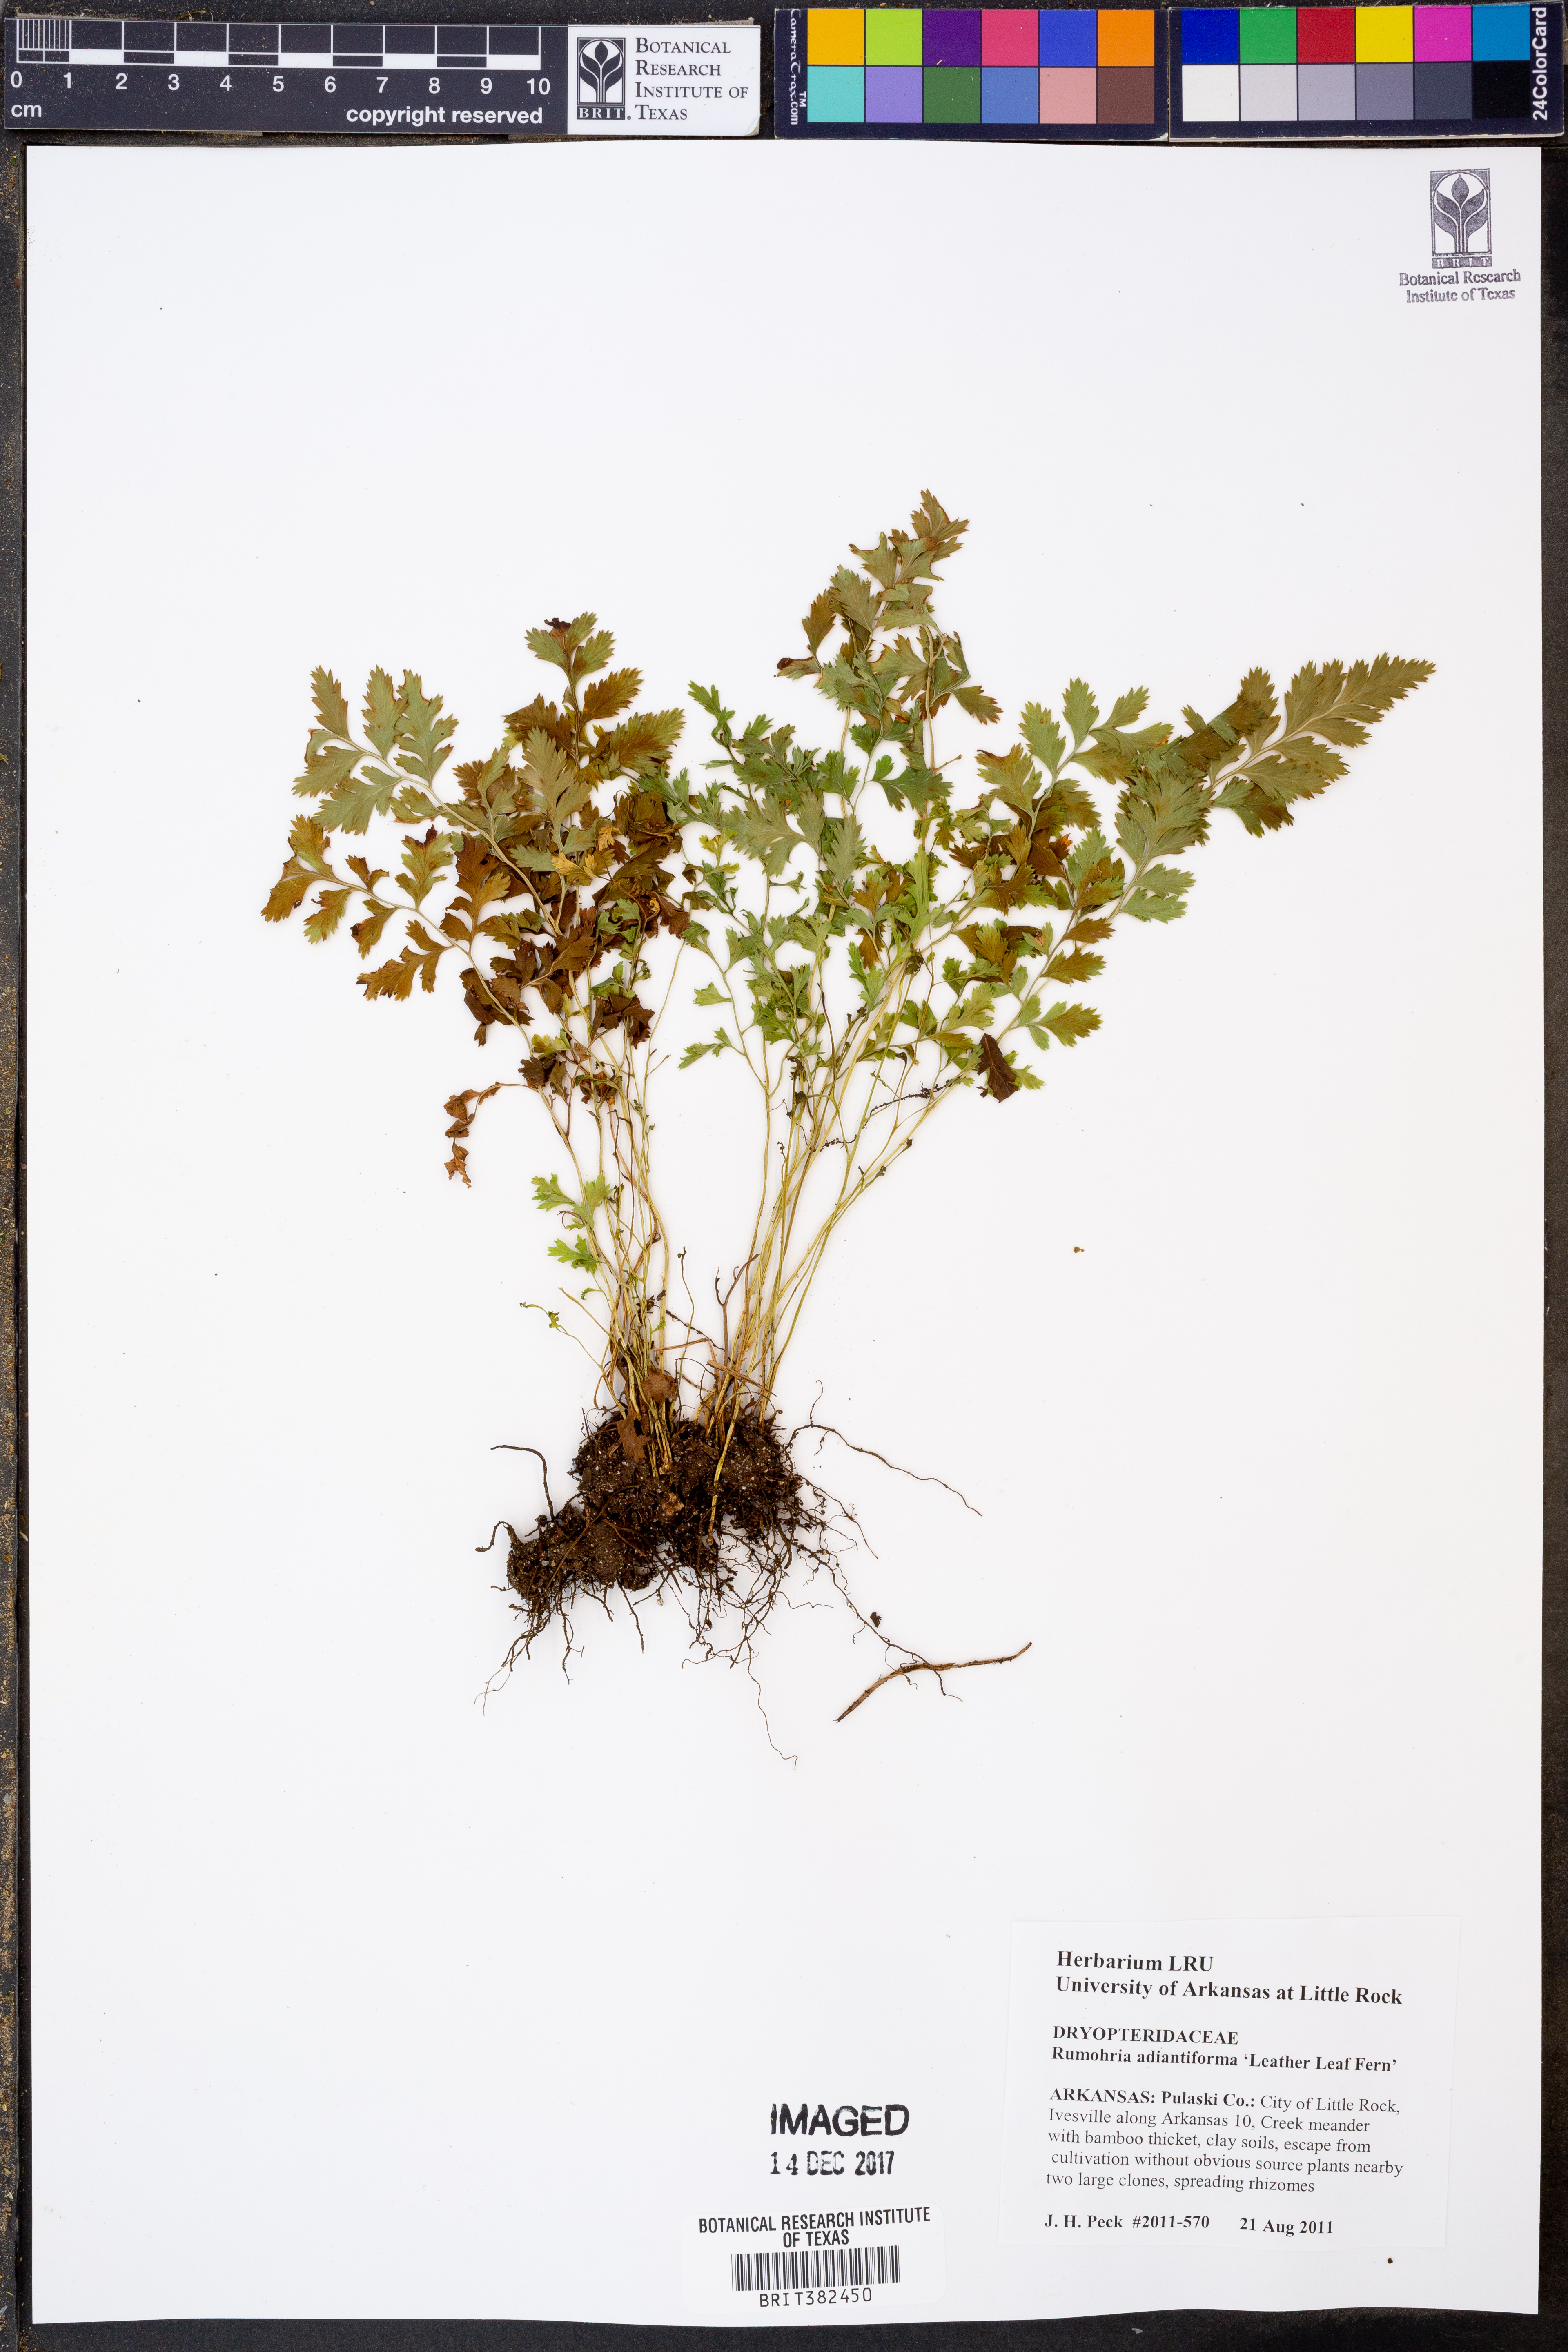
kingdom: Plantae
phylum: Tracheophyta
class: Polypodiopsida
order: Polypodiales
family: Dryopteridaceae
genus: Rumohra
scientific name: Rumohra adiantiformis
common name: Leather fern
